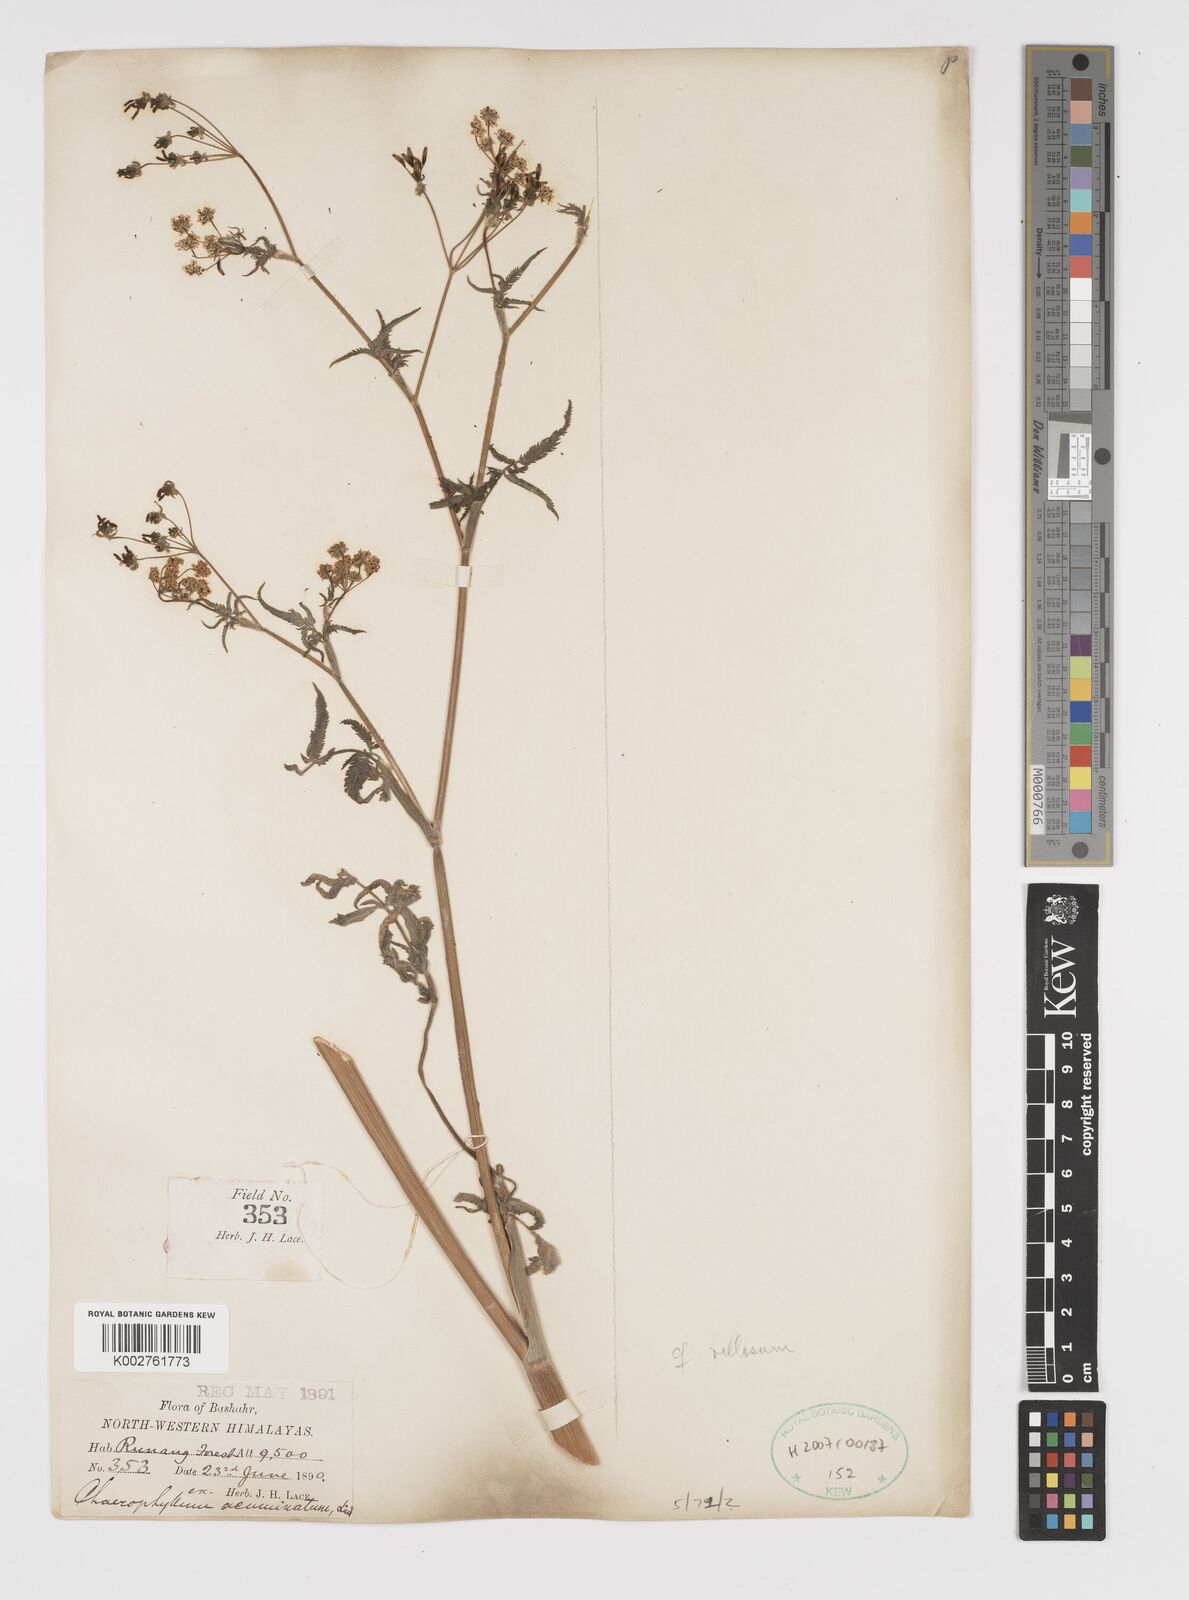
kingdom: Plantae
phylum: Tracheophyta
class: Magnoliopsida
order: Apiales
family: Apiaceae
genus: Chaerophyllum
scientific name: Chaerophyllum reflexum
